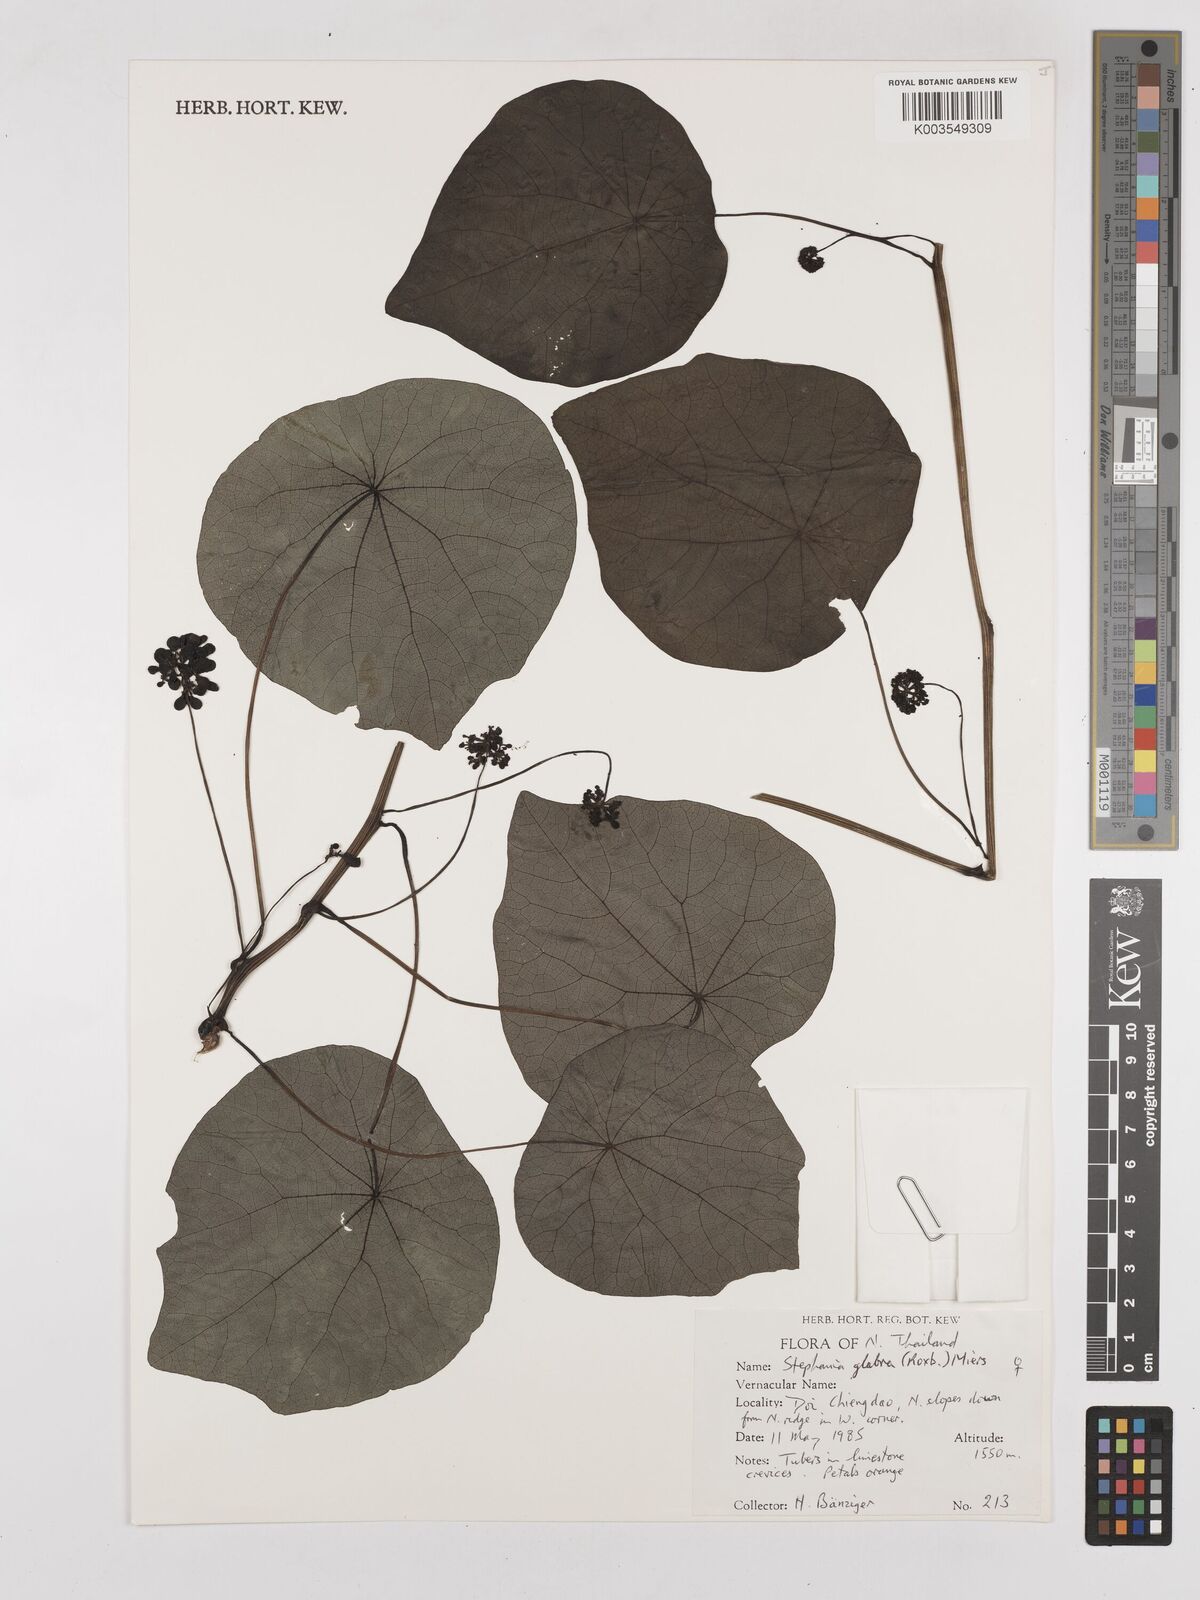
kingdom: Plantae
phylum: Tracheophyta
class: Magnoliopsida
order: Ranunculales
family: Menispermaceae
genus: Stephania
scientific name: Stephania rotunda
